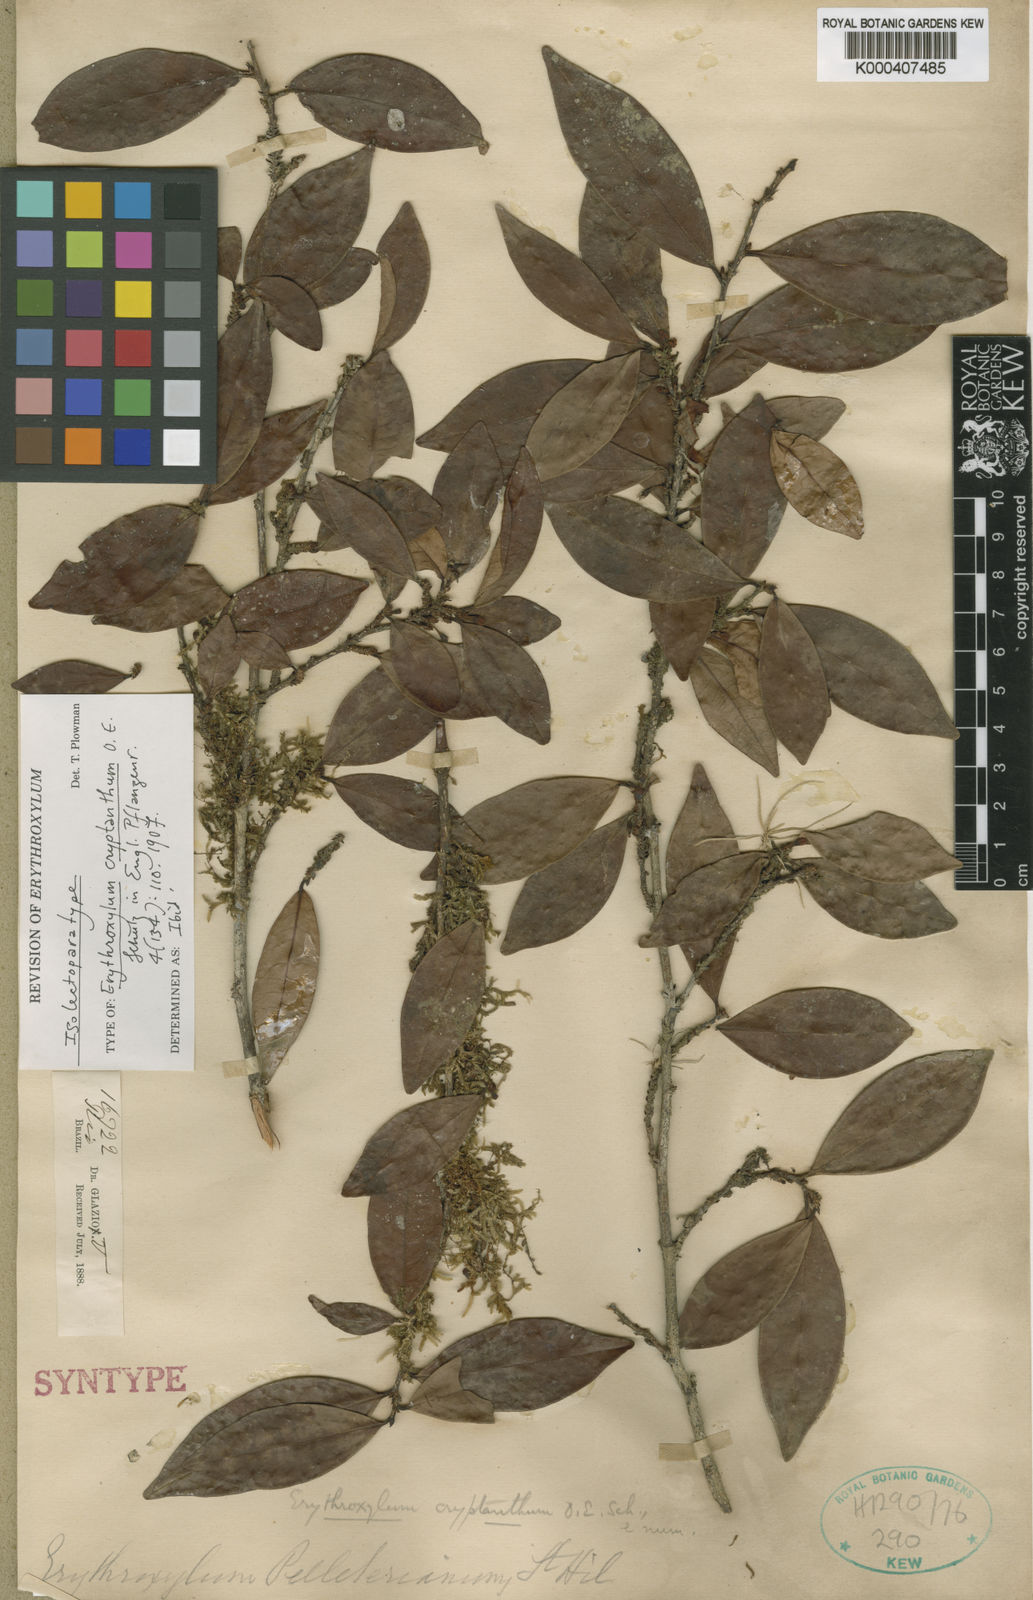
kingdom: Plantae
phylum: Tracheophyta
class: Magnoliopsida
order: Malpighiales
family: Erythroxylaceae
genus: Erythroxylum
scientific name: Erythroxylum cryptanthum
